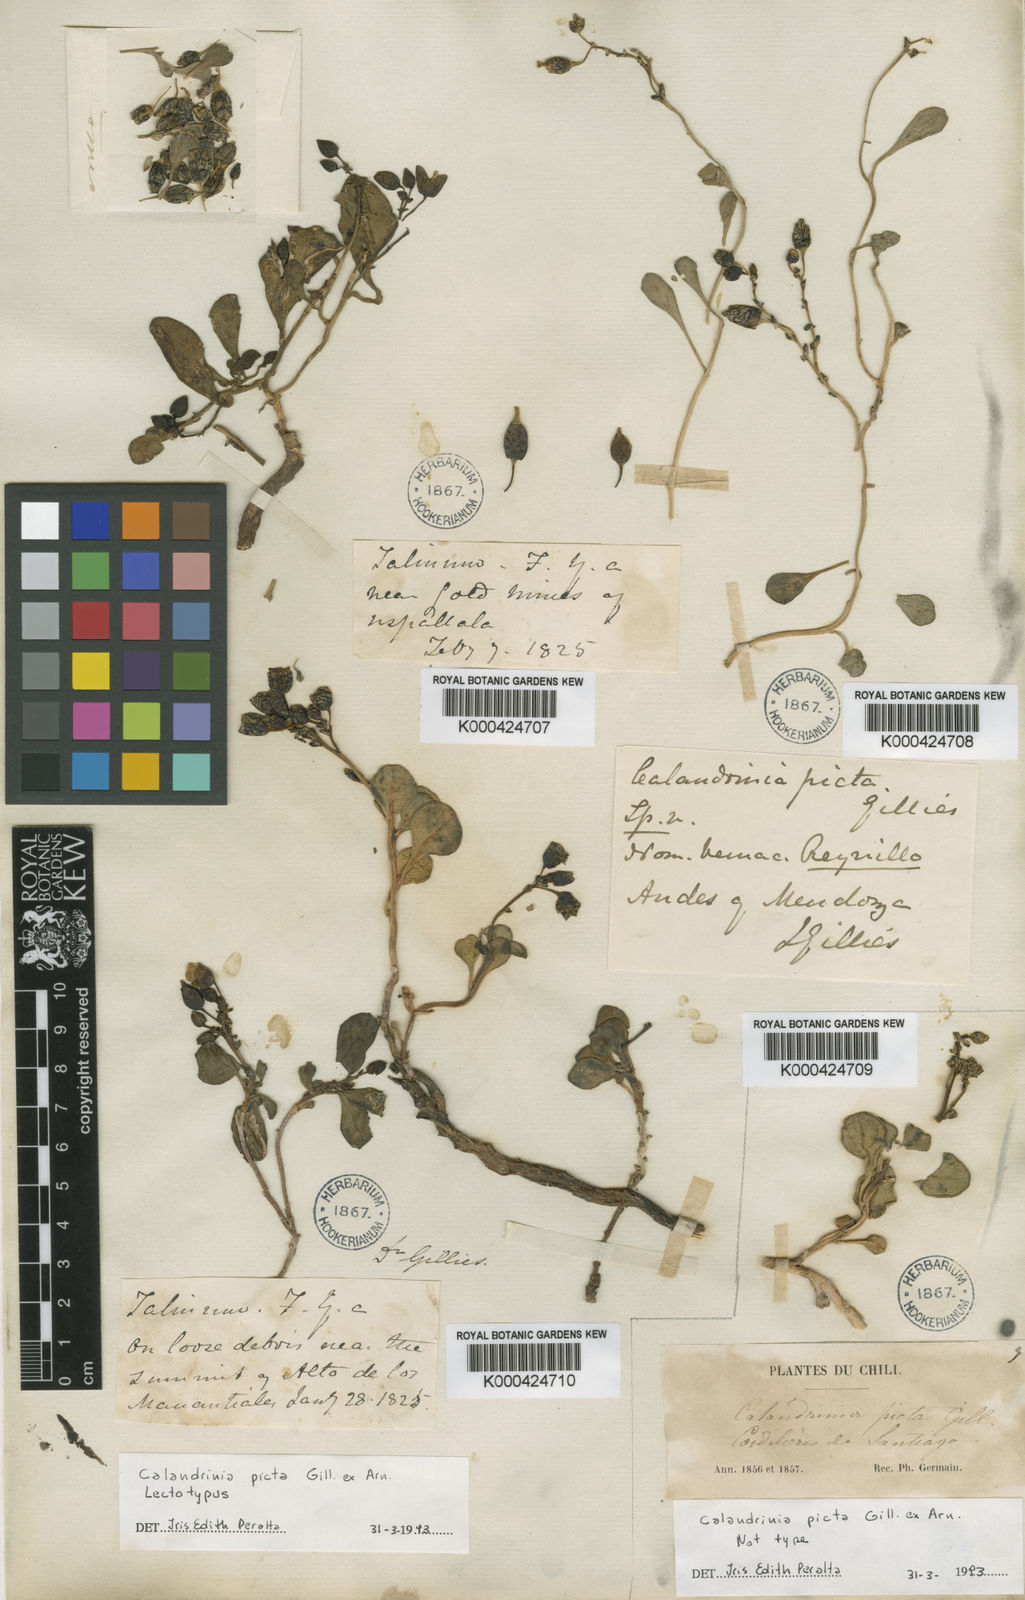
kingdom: Plantae
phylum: Tracheophyta
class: Magnoliopsida
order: Caryophyllales
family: Montiaceae
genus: Cistanthe
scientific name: Cistanthe picta
